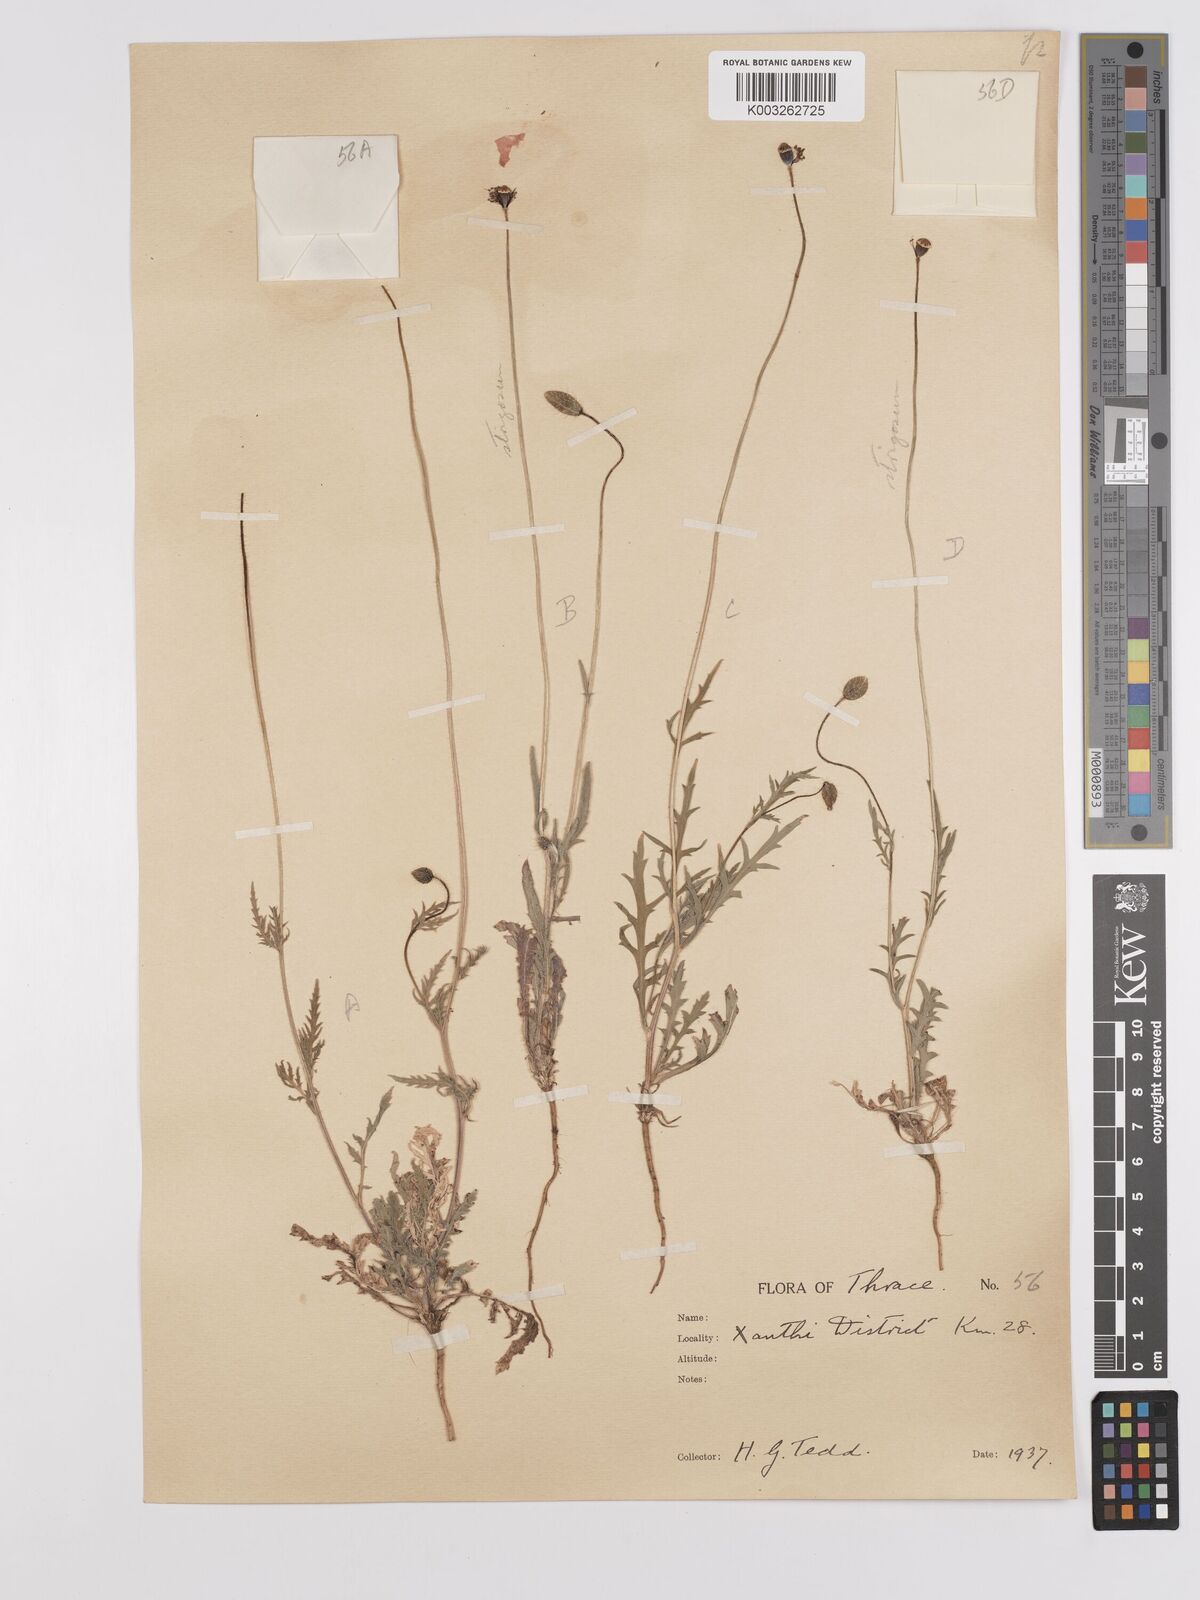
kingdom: Plantae
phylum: Tracheophyta
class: Magnoliopsida
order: Ranunculales
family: Papaveraceae
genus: Papaver
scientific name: Papaver
